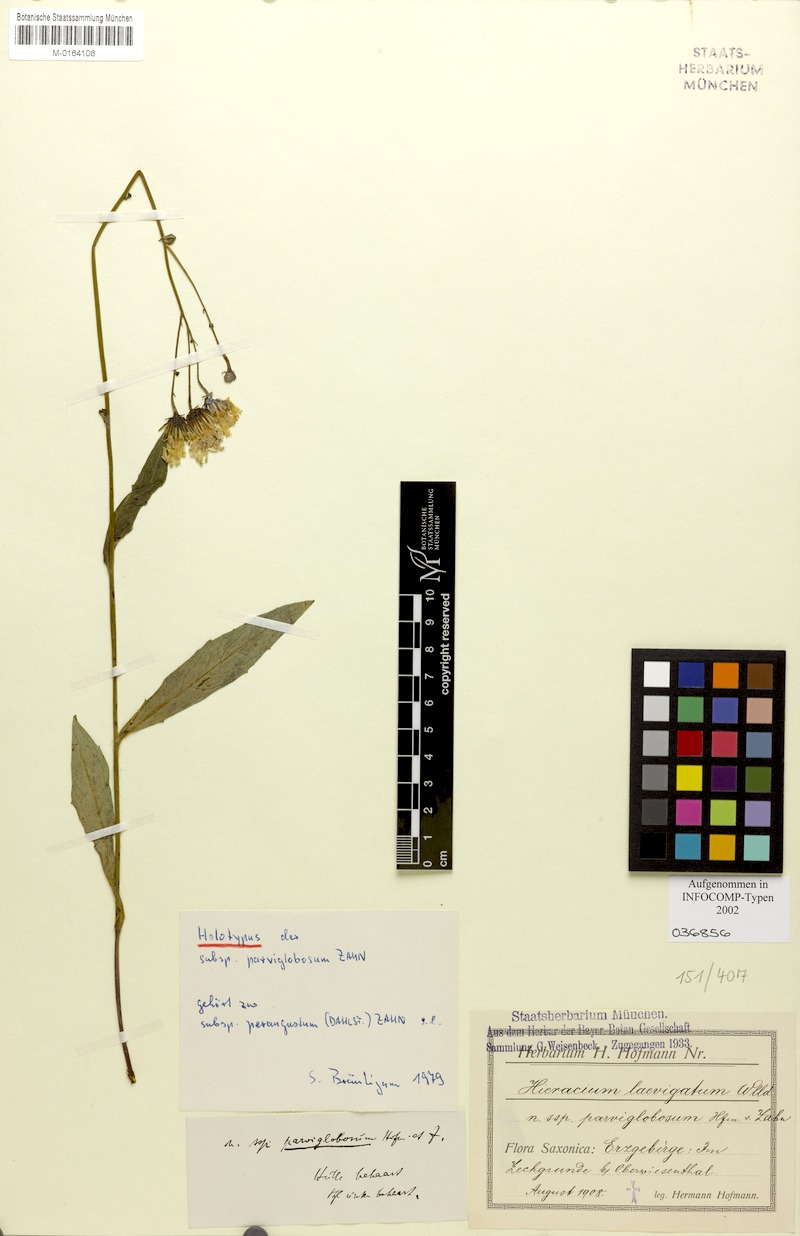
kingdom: Plantae
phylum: Tracheophyta
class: Magnoliopsida
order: Asterales
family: Asteraceae
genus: Hieracium
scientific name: Hieracium laevigatum
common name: Smooth hawkweed
